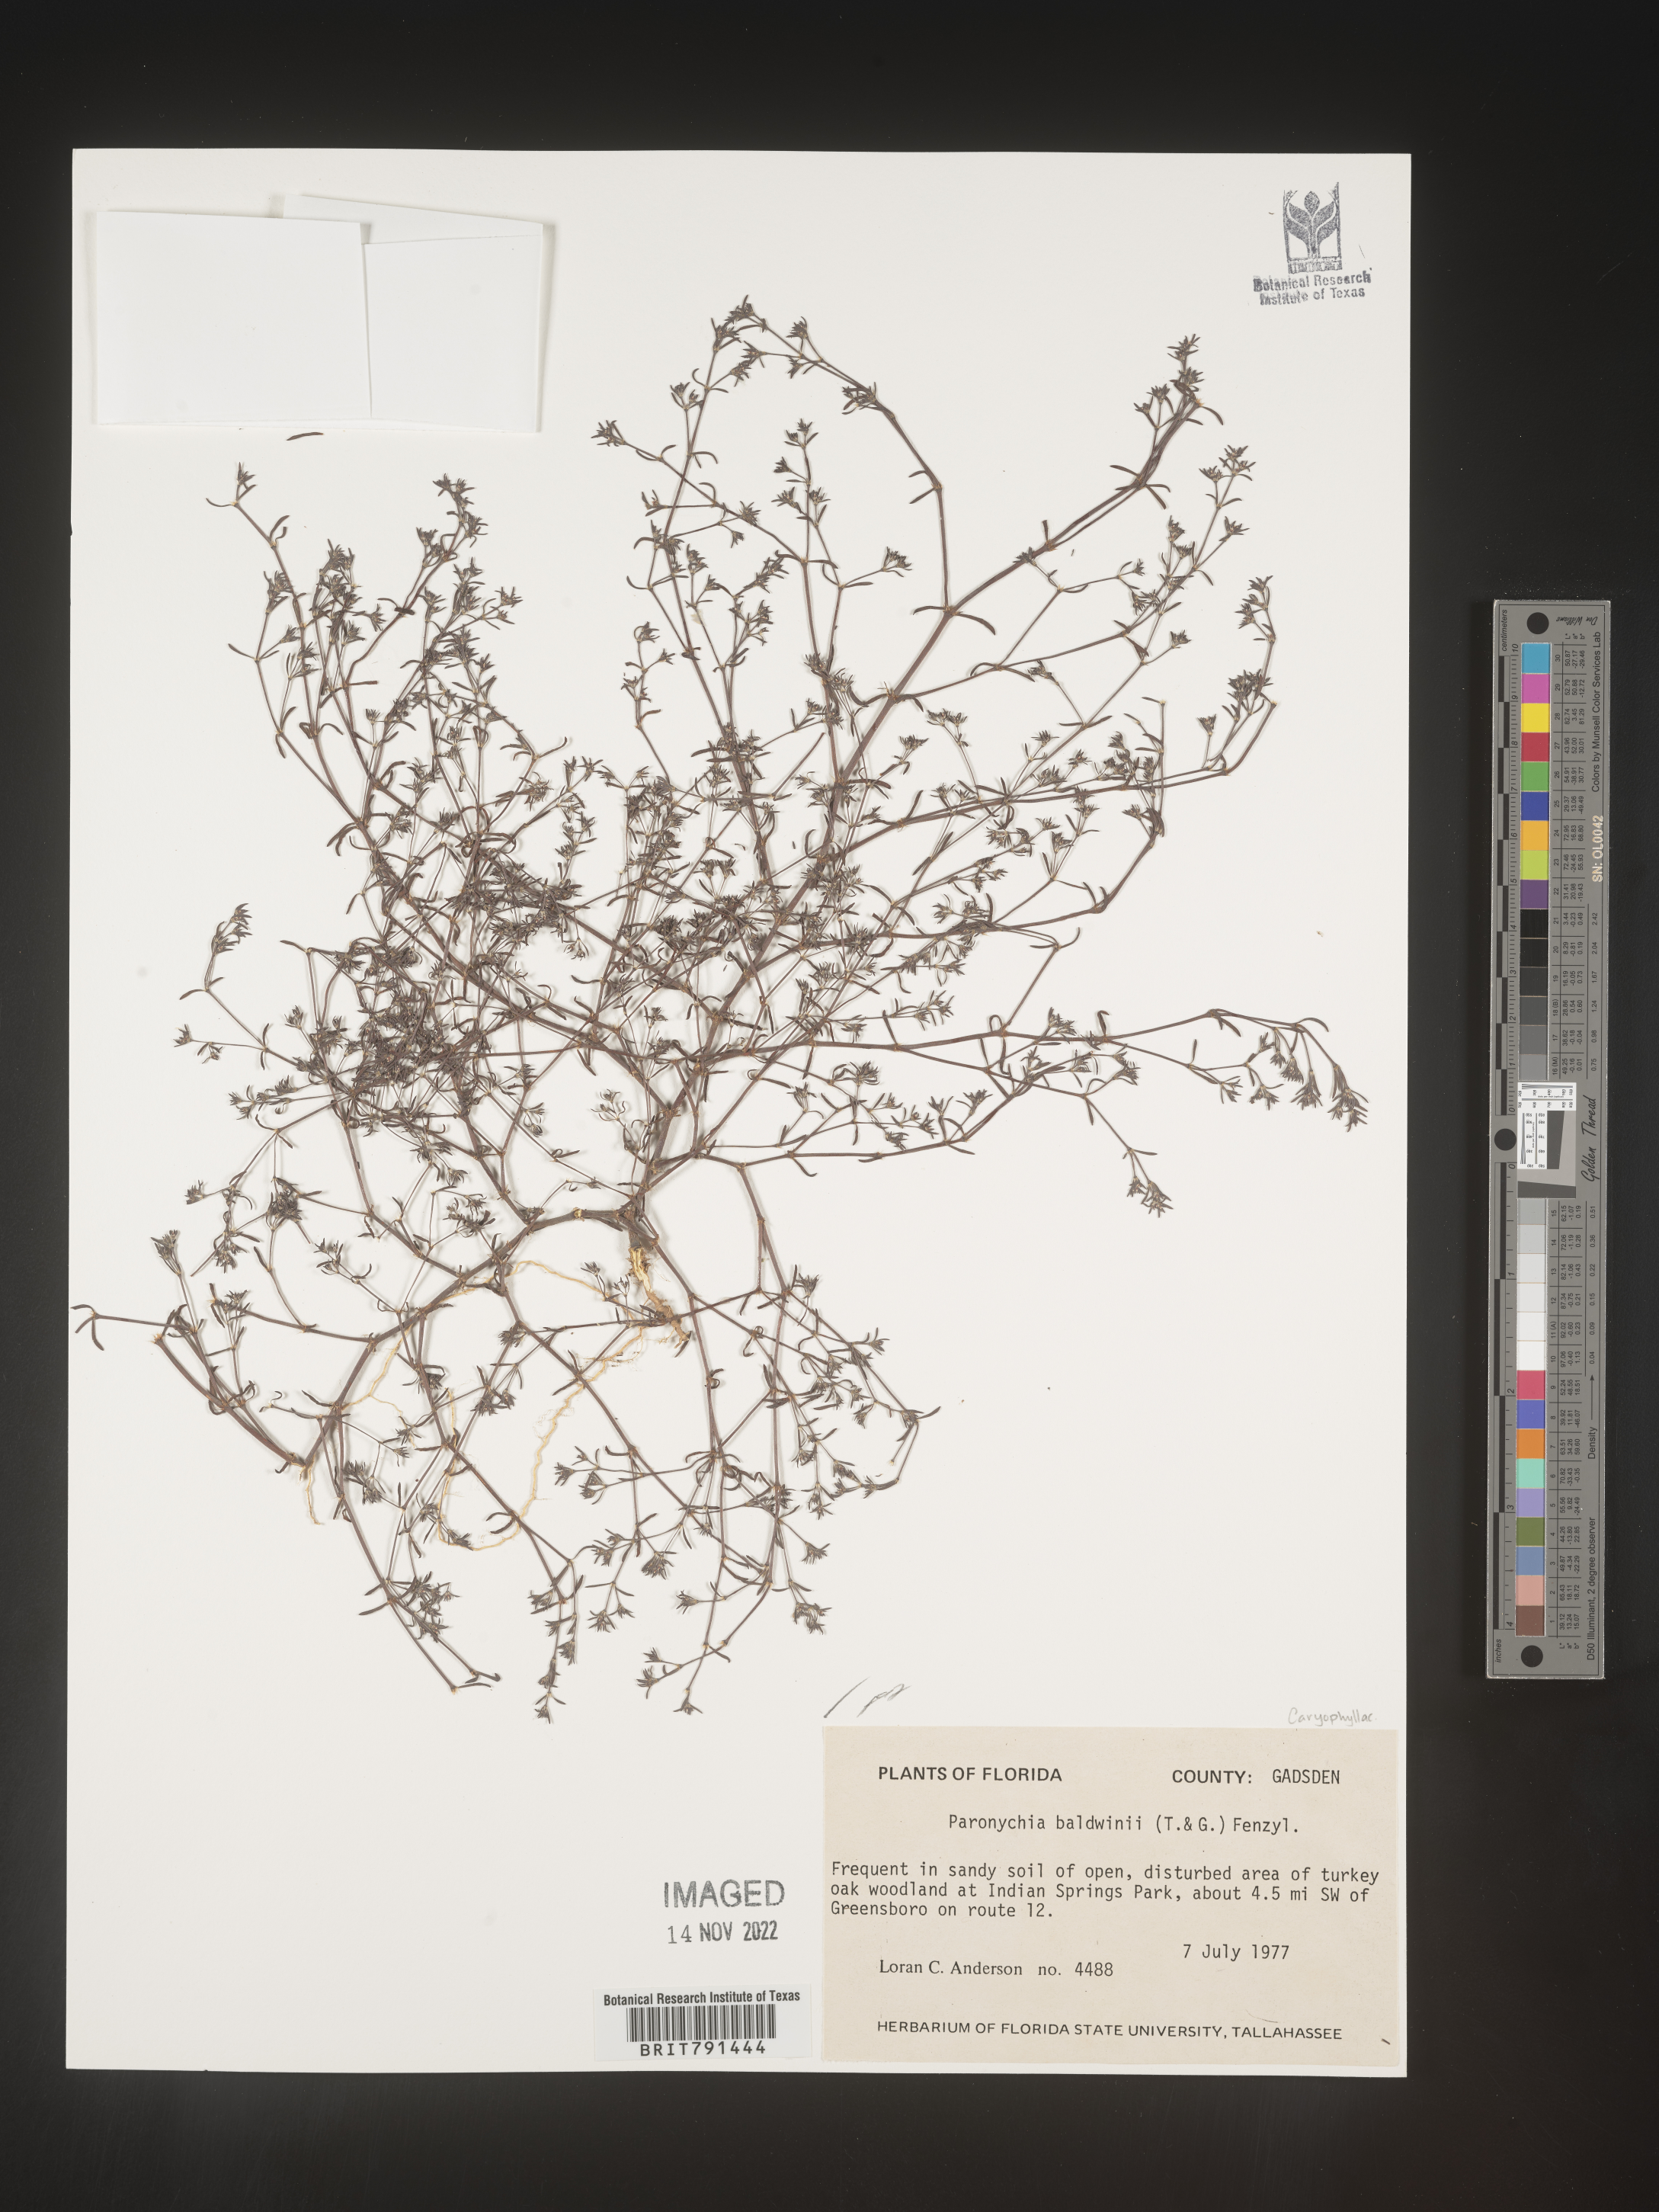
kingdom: Plantae
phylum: Tracheophyta
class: Magnoliopsida
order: Caryophyllales
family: Caryophyllaceae
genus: Paronychia
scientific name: Paronychia baldwinii
